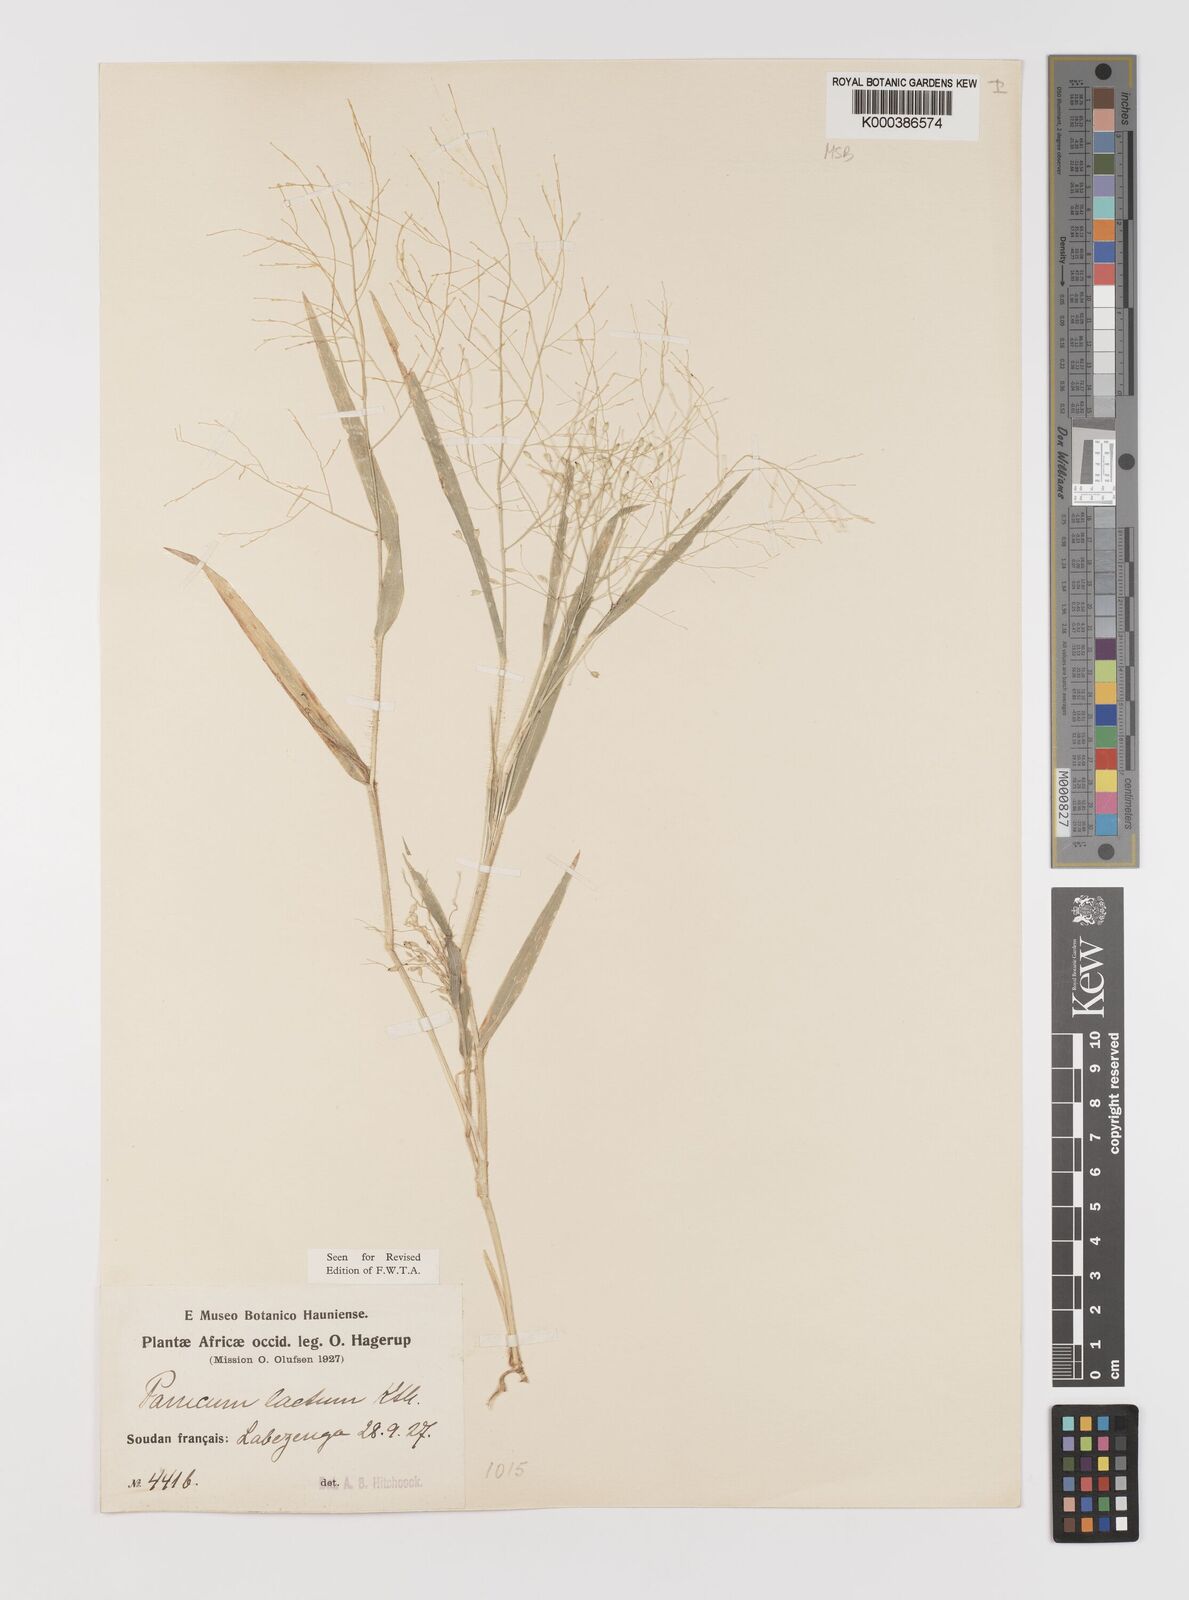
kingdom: Plantae
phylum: Tracheophyta
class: Liliopsida
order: Poales
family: Poaceae
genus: Panicum
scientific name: Panicum laetum
